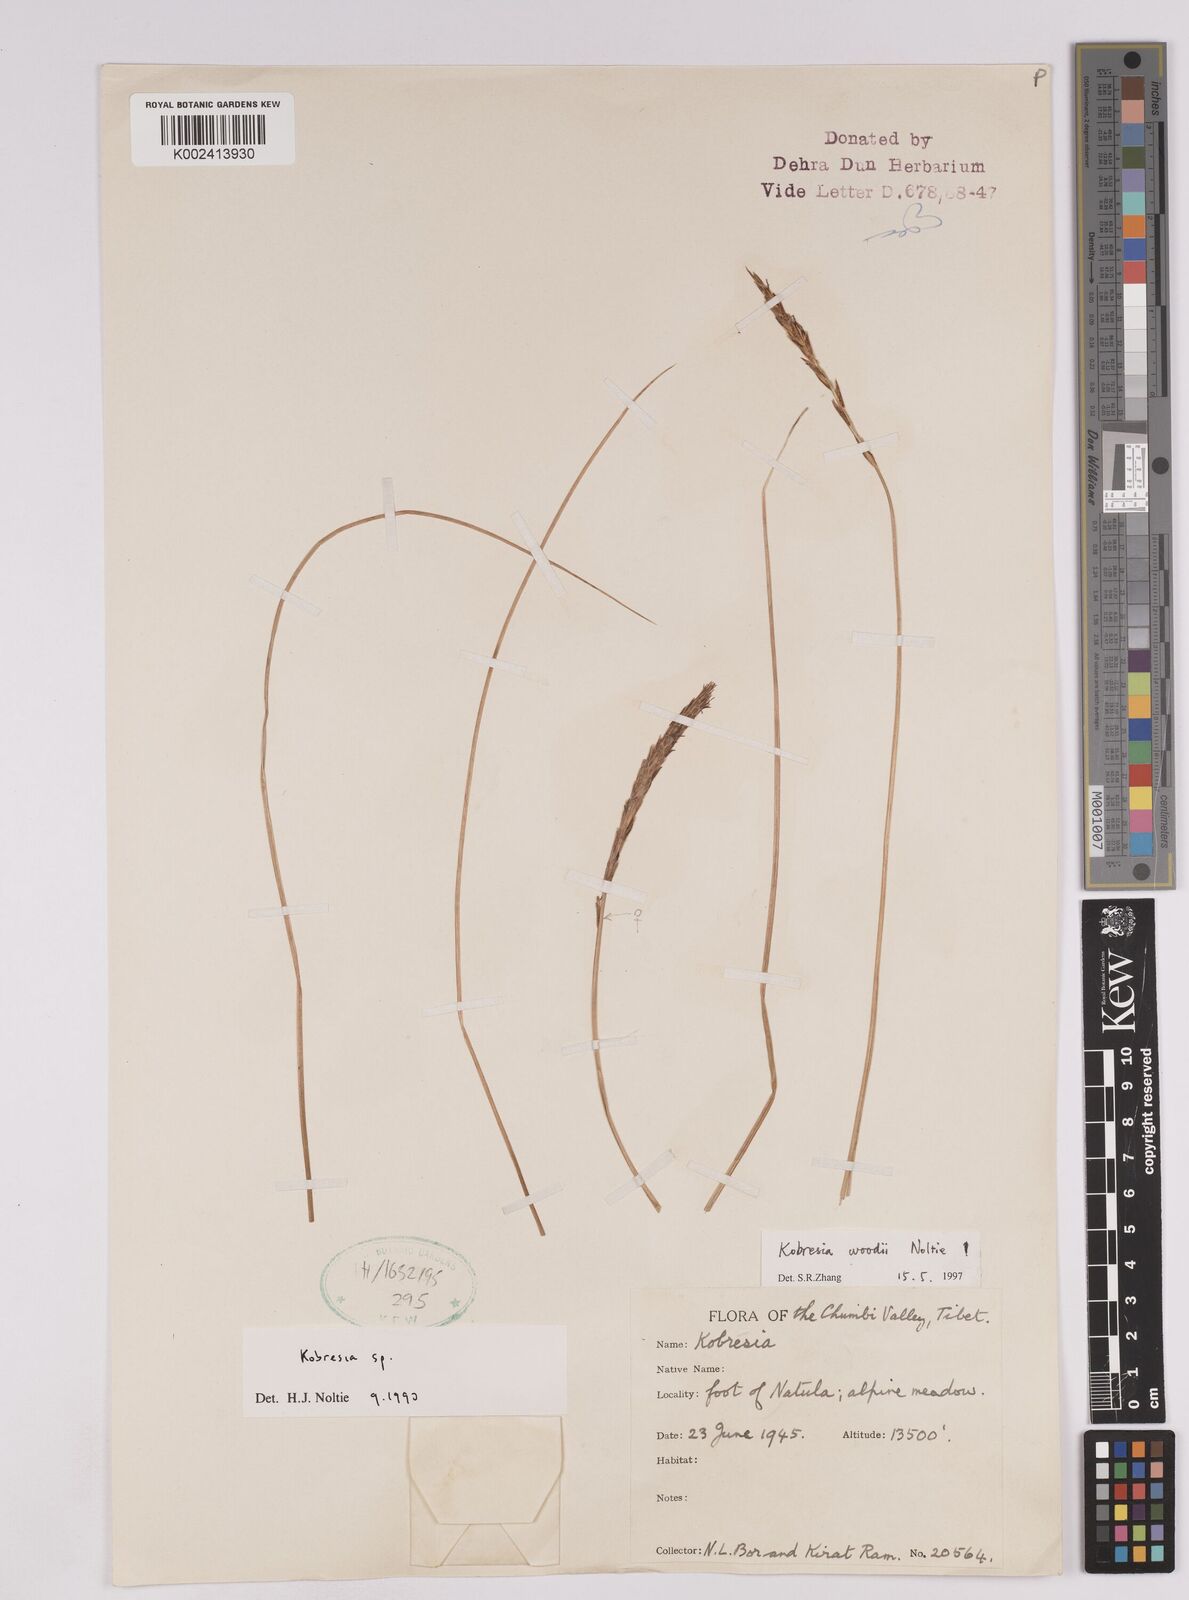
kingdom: Plantae
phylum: Tracheophyta
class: Liliopsida
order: Poales
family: Cyperaceae
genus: Carex
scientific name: Carex noltiei
